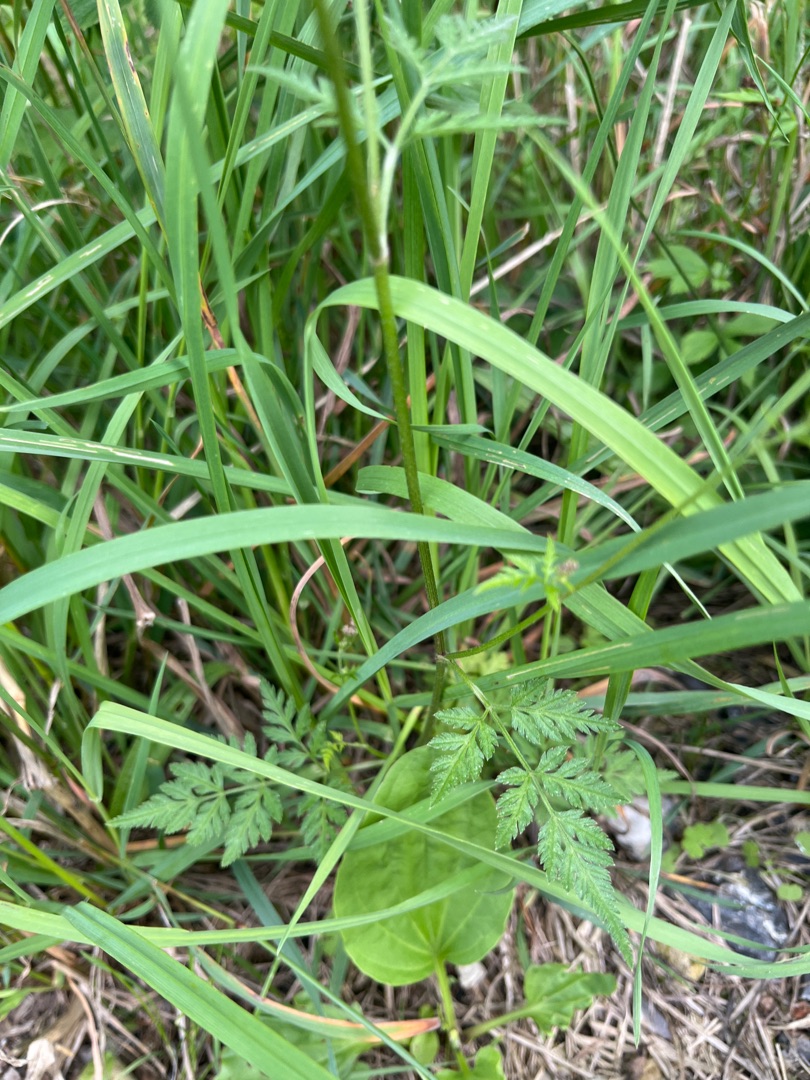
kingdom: Plantae
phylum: Tracheophyta
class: Magnoliopsida
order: Apiales
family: Apiaceae
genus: Torilis
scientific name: Torilis japonica
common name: Hvas randfrø
